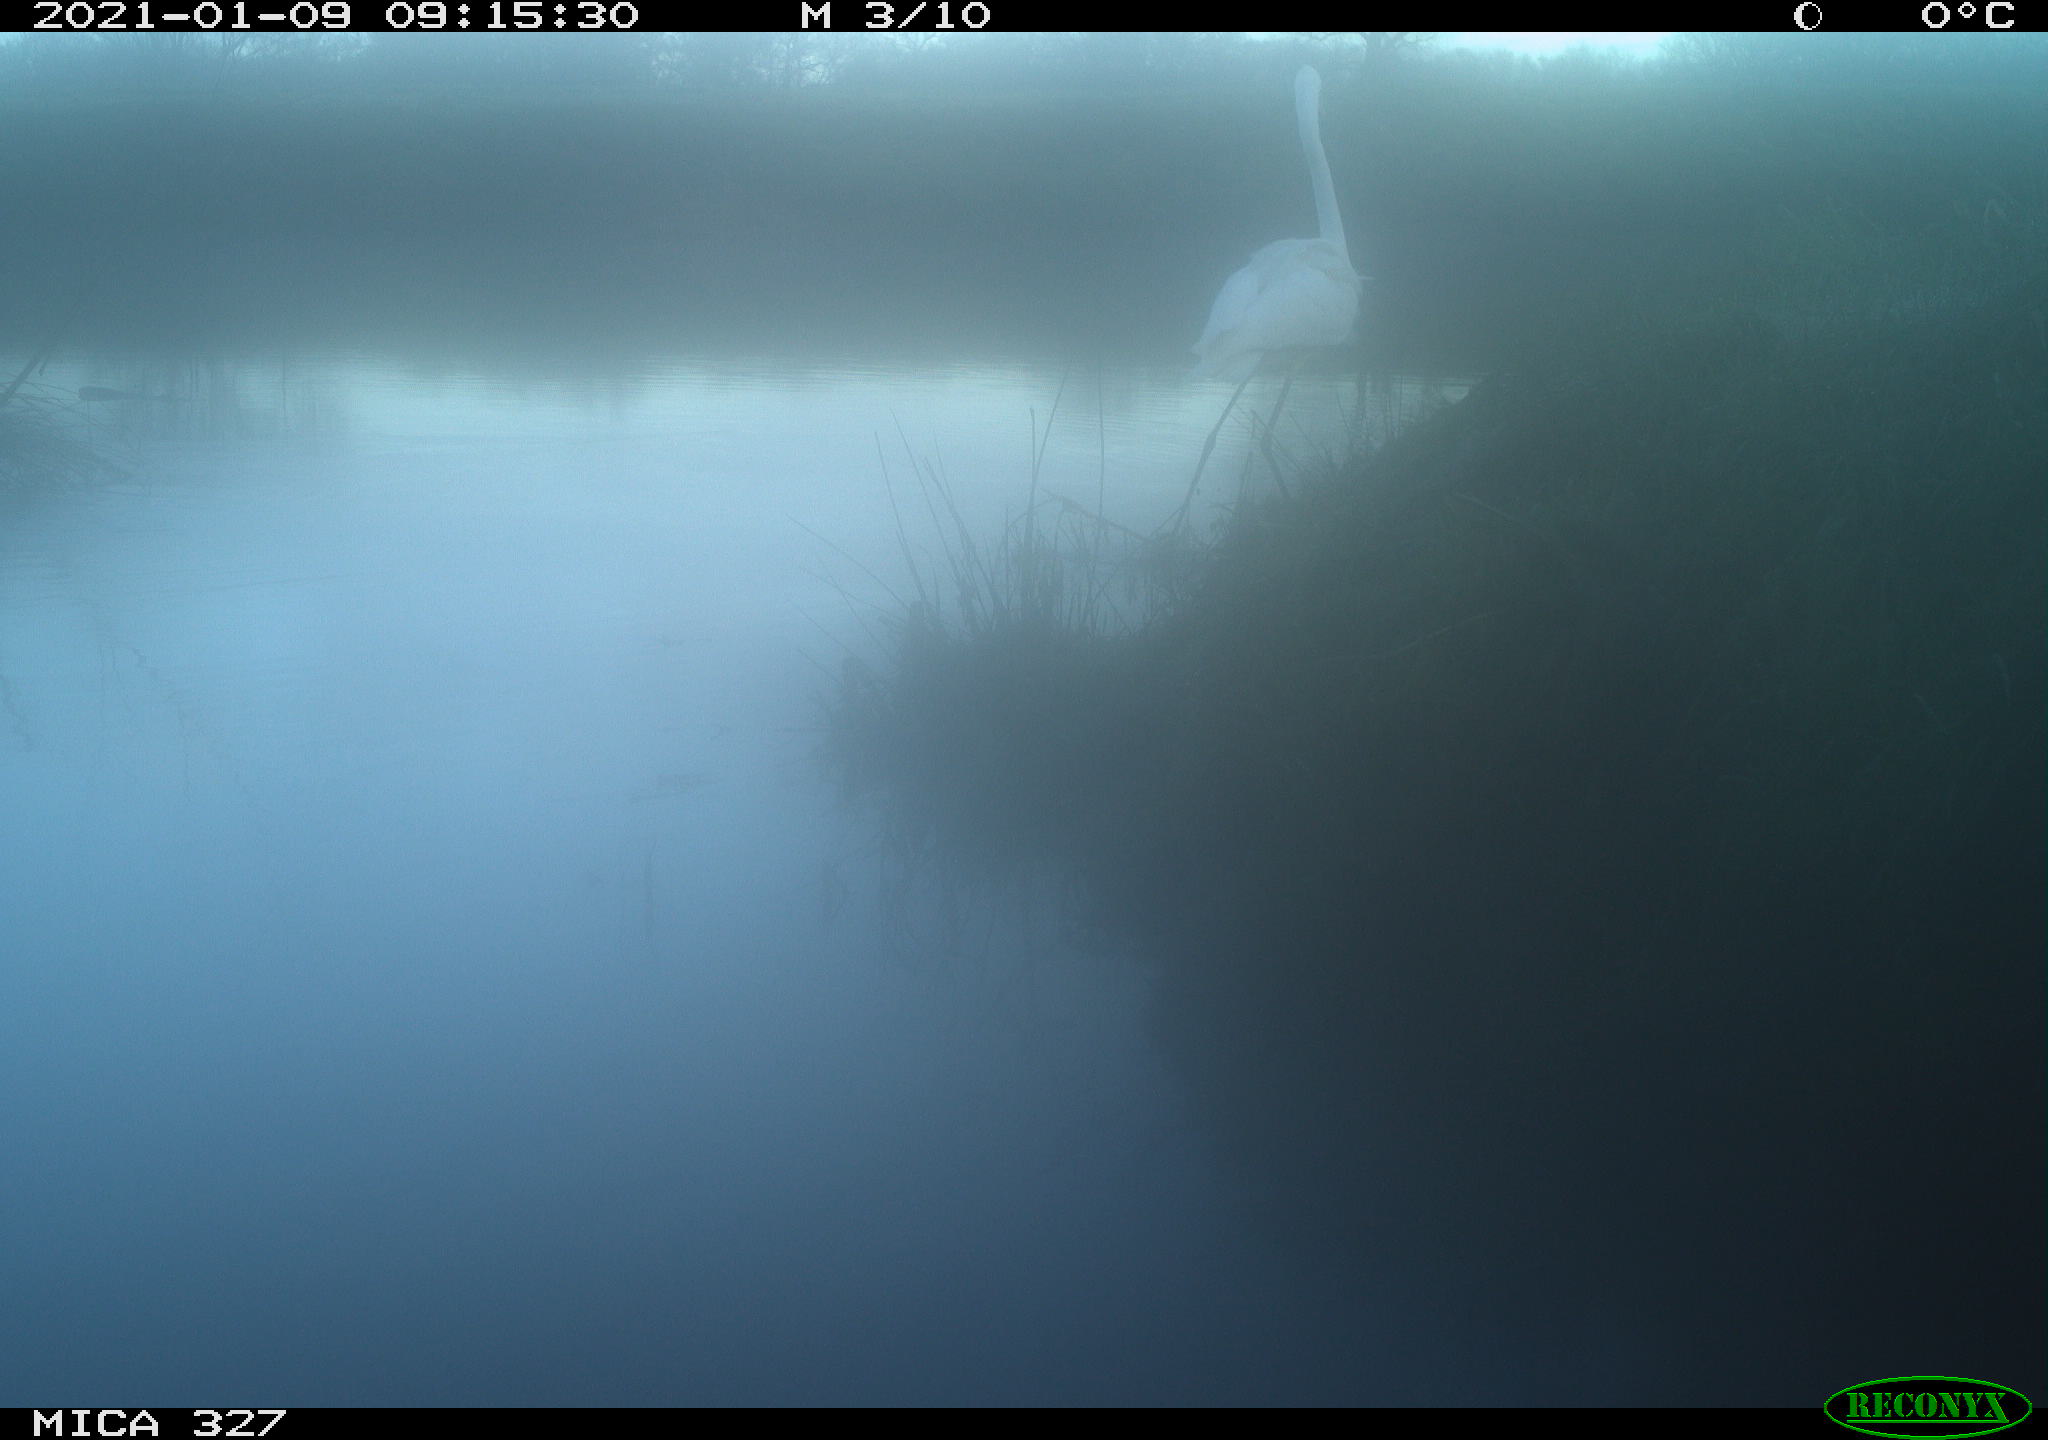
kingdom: Animalia
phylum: Chordata
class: Aves
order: Pelecaniformes
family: Ardeidae
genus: Ardea
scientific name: Ardea alba
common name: Great egret
